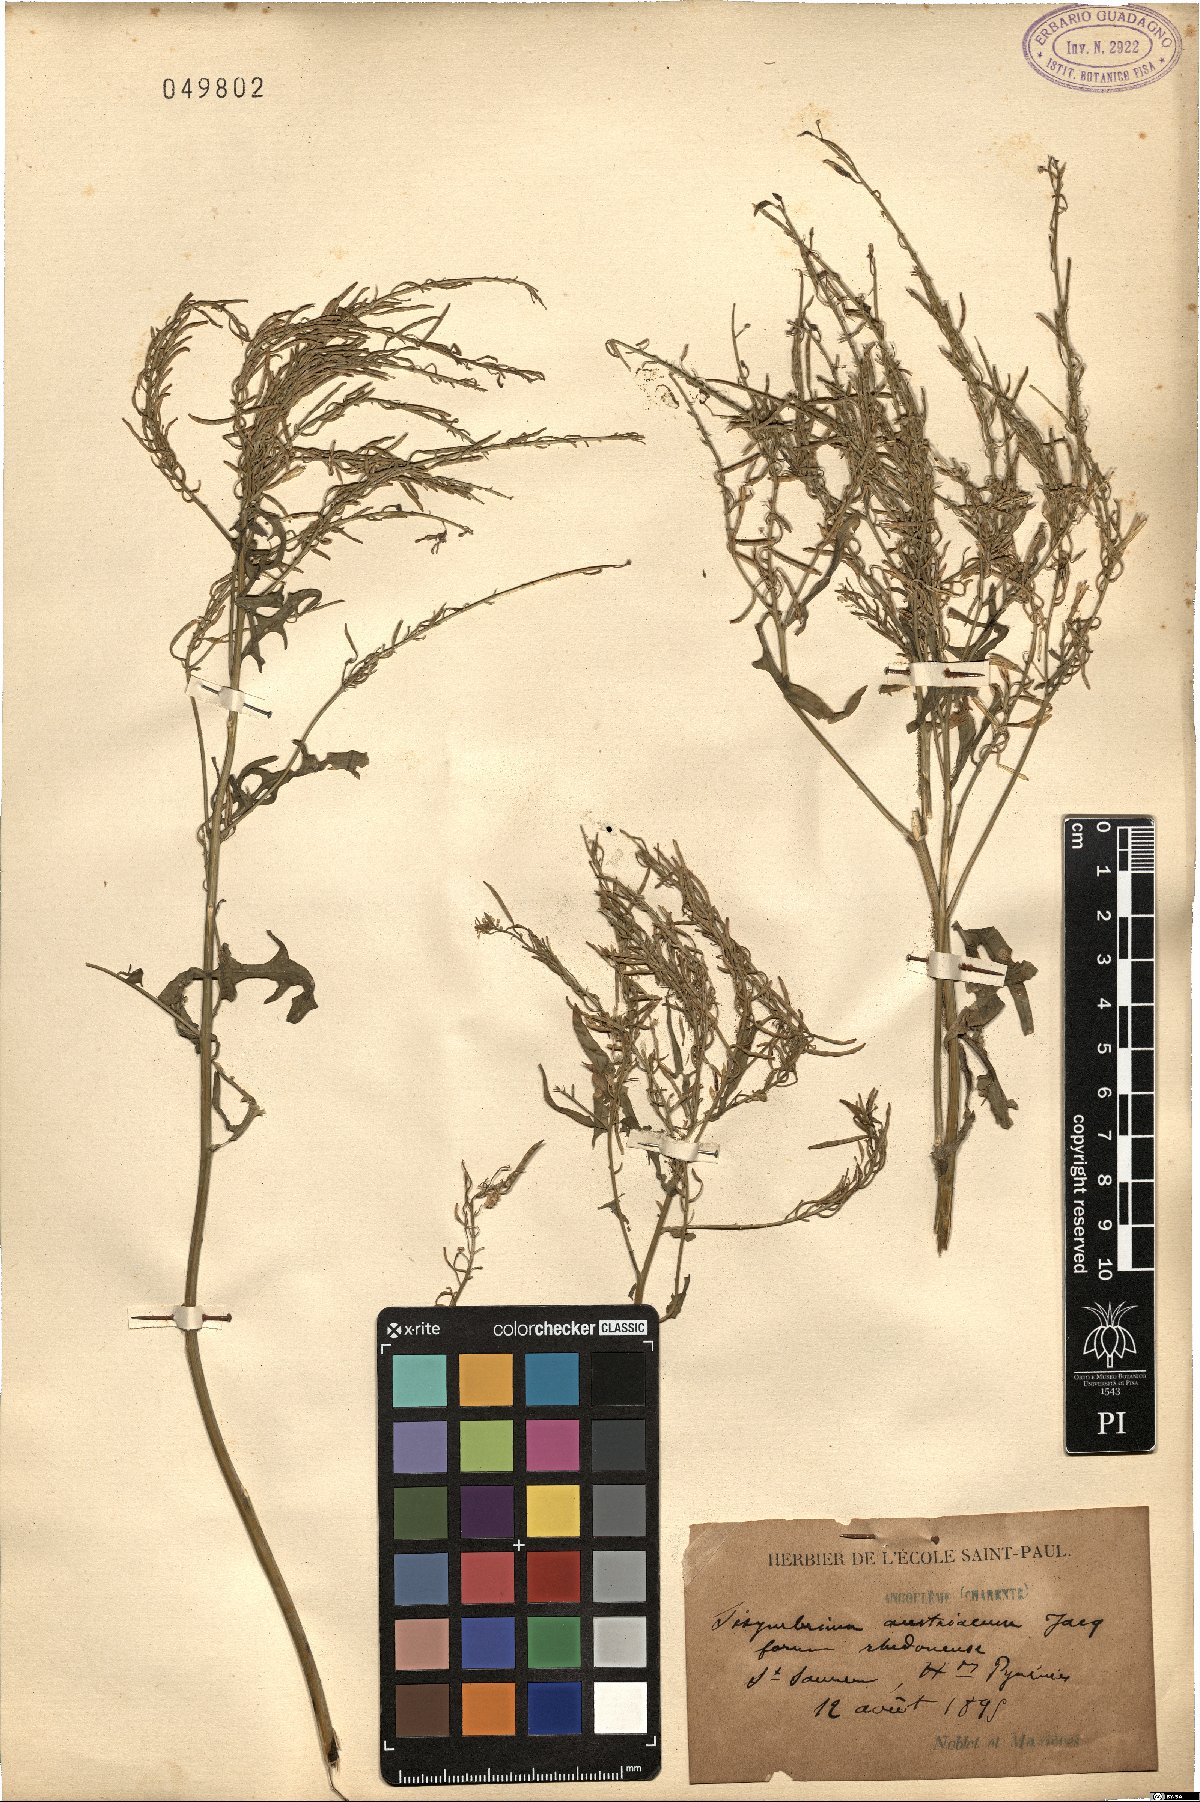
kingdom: Plantae
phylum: Tracheophyta
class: Magnoliopsida
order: Brassicales
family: Brassicaceae
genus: Sisymbrium
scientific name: Sisymbrium austriacum
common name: Jeweled rocket
